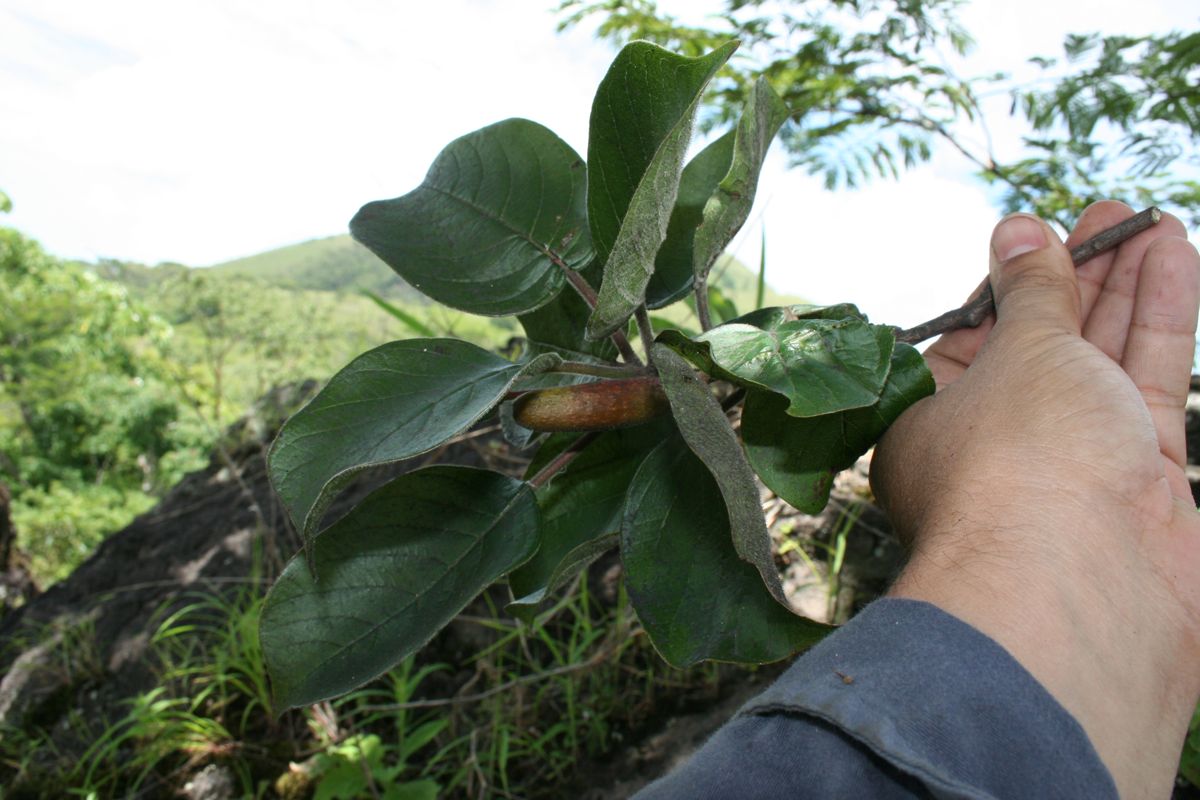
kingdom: Plantae
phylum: Tracheophyta
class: Magnoliopsida
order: Myrtales
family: Onagraceae
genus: Hauya
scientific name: Hauya elegans
